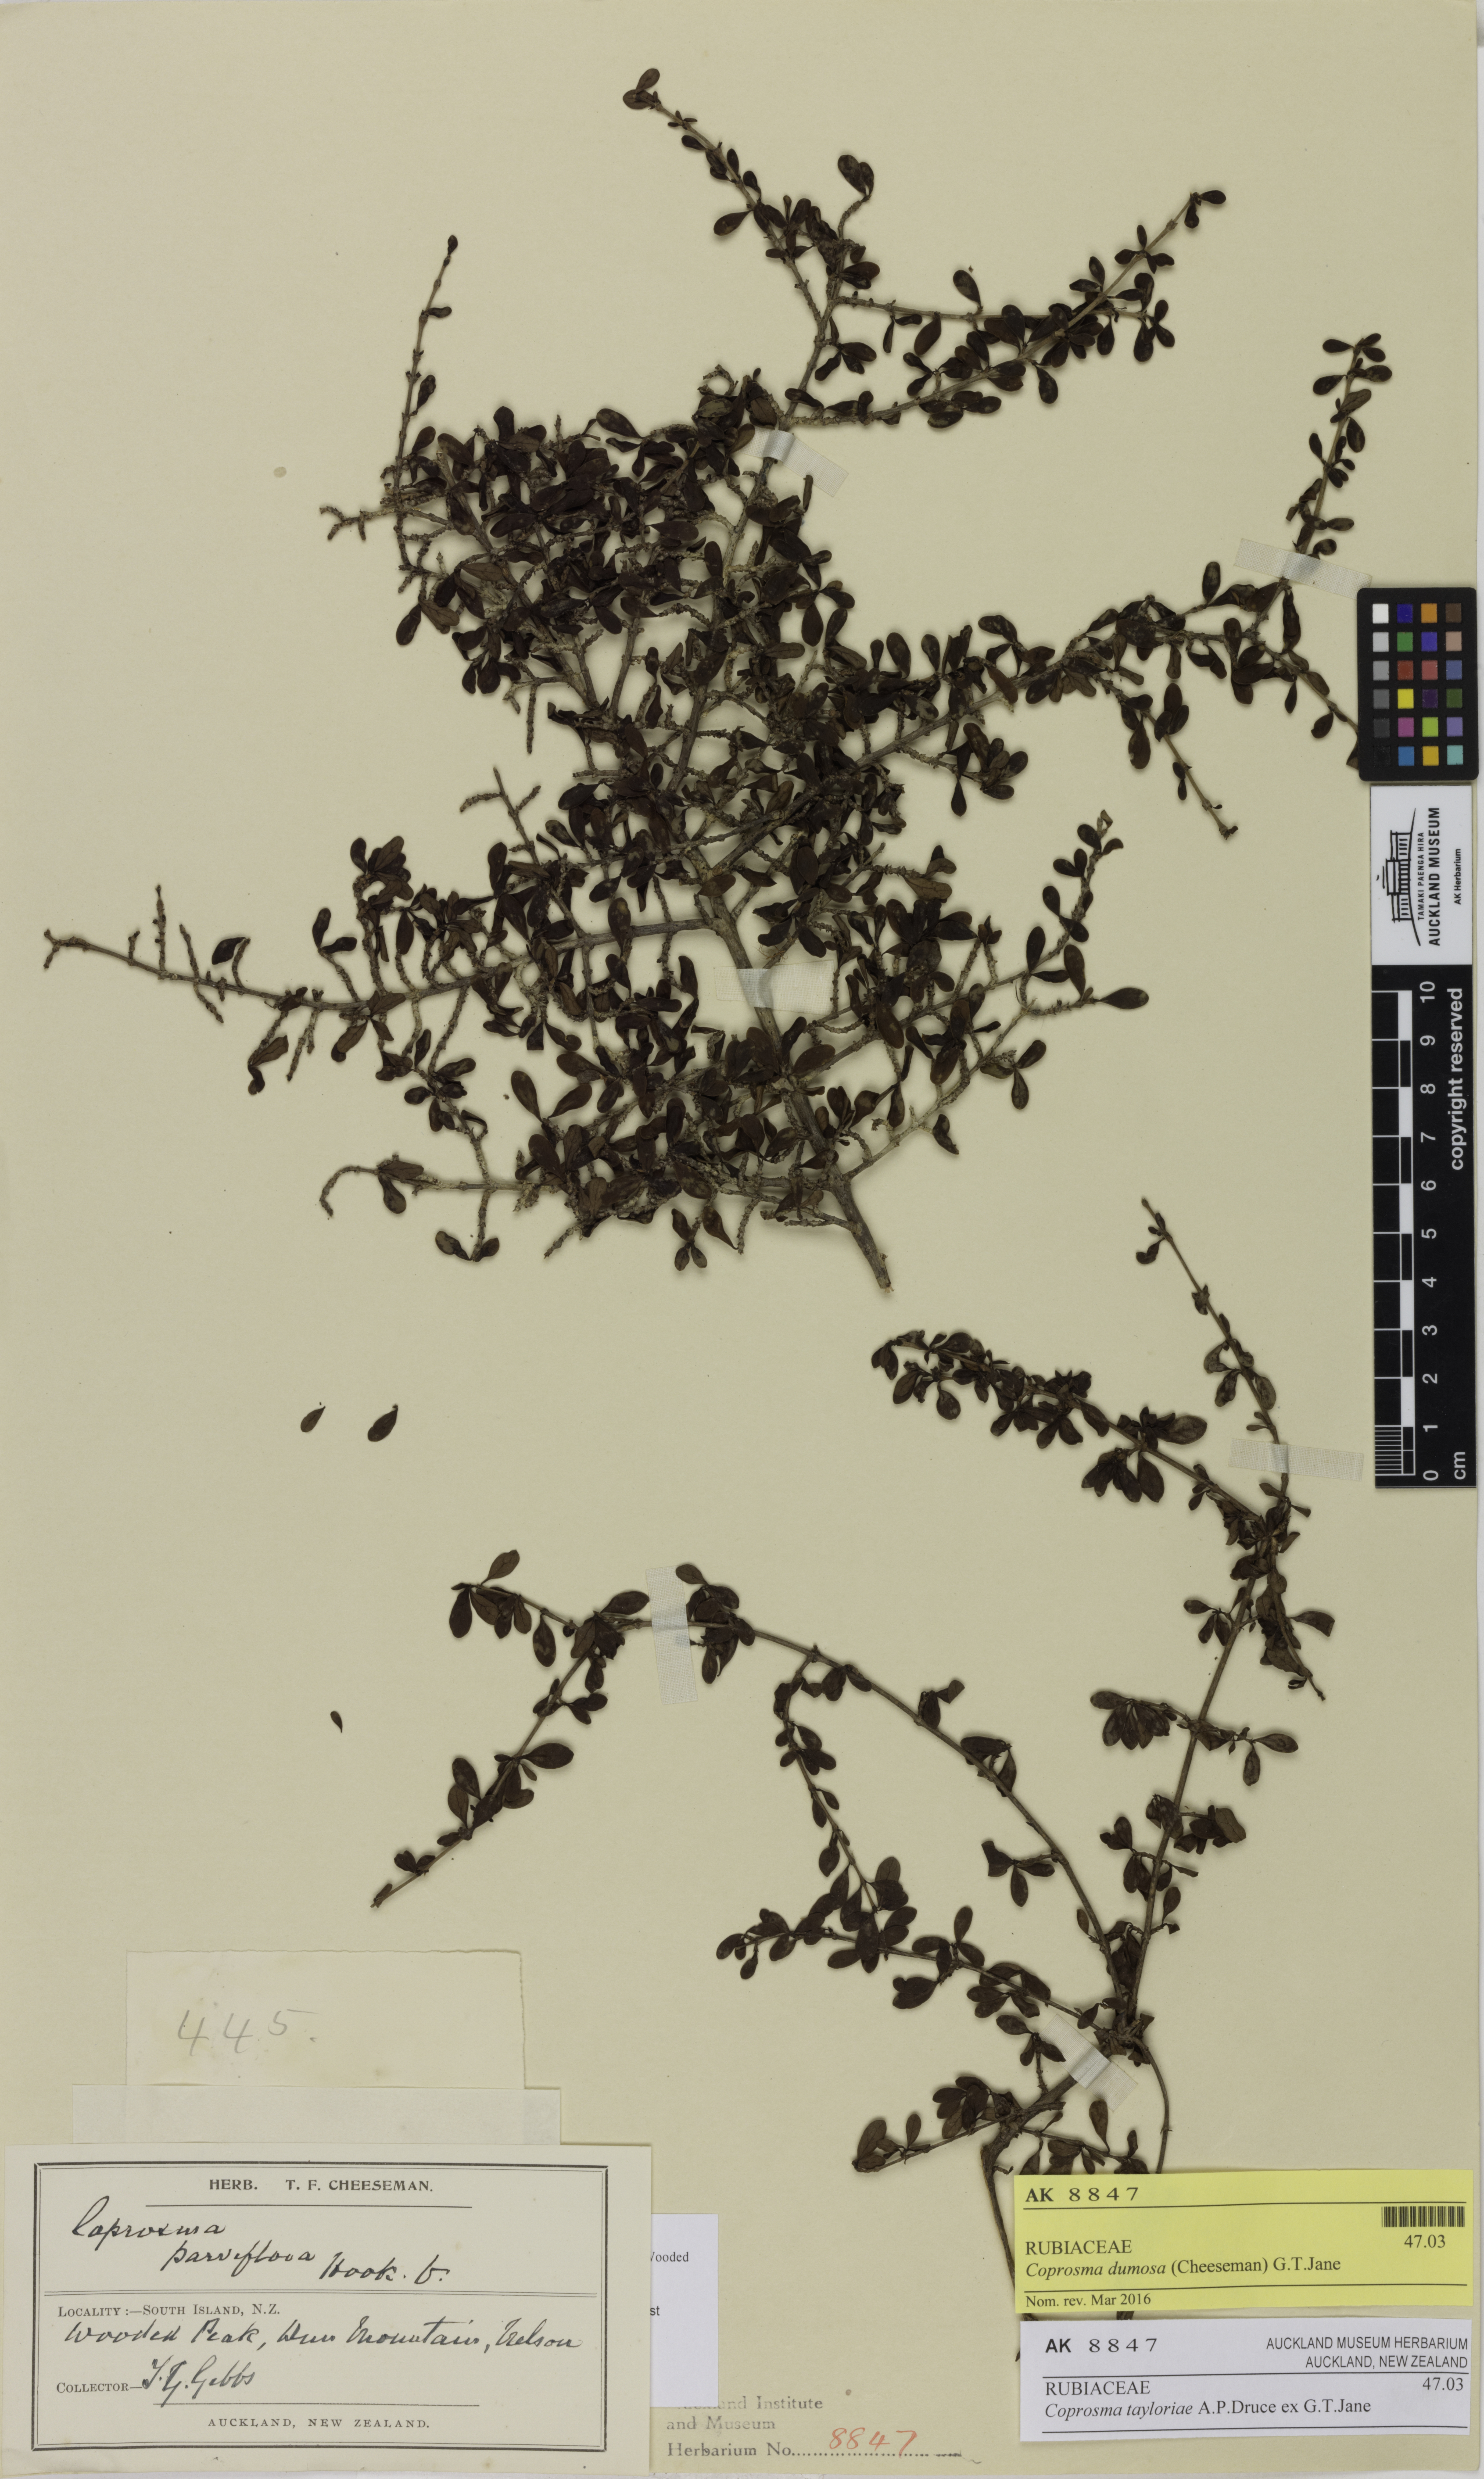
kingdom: Plantae
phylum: Tracheophyta
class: Magnoliopsida
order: Gentianales
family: Rubiaceae
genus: Coprosma
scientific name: Coprosma dumosa
